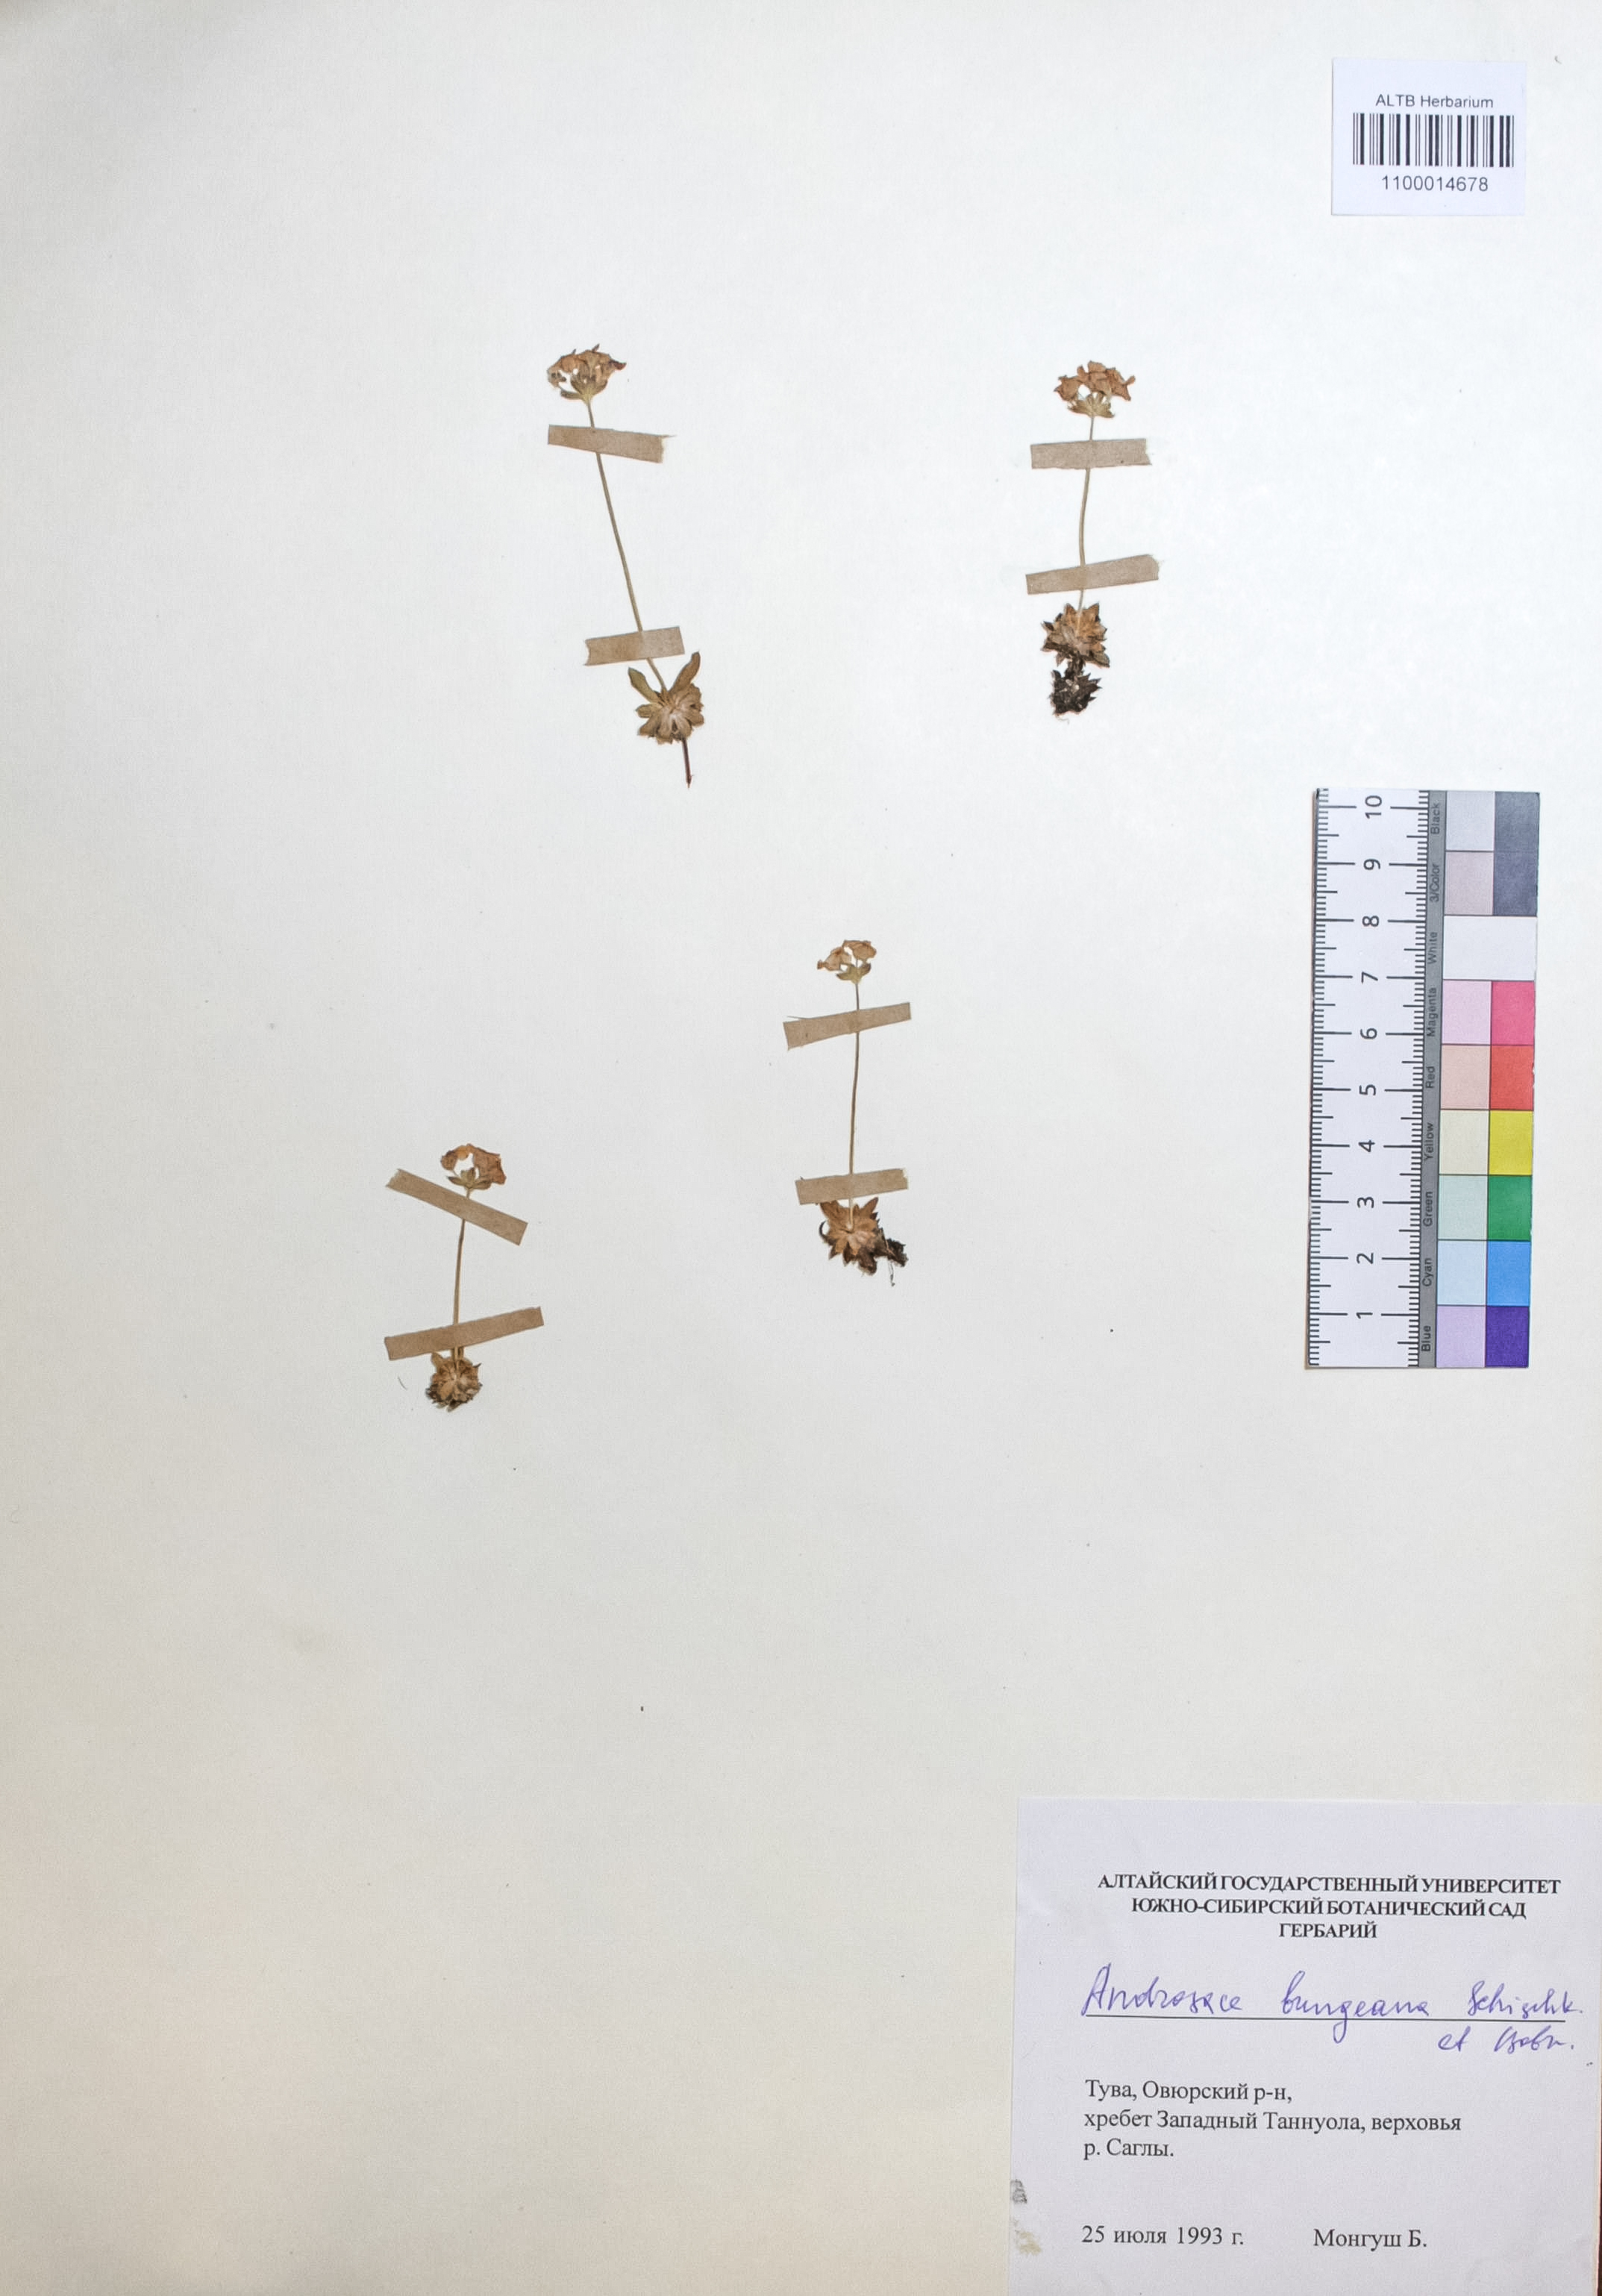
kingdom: Plantae
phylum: Tracheophyta
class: Magnoliopsida
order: Ericales
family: Primulaceae
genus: Androsace
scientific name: Androsace bungeana
